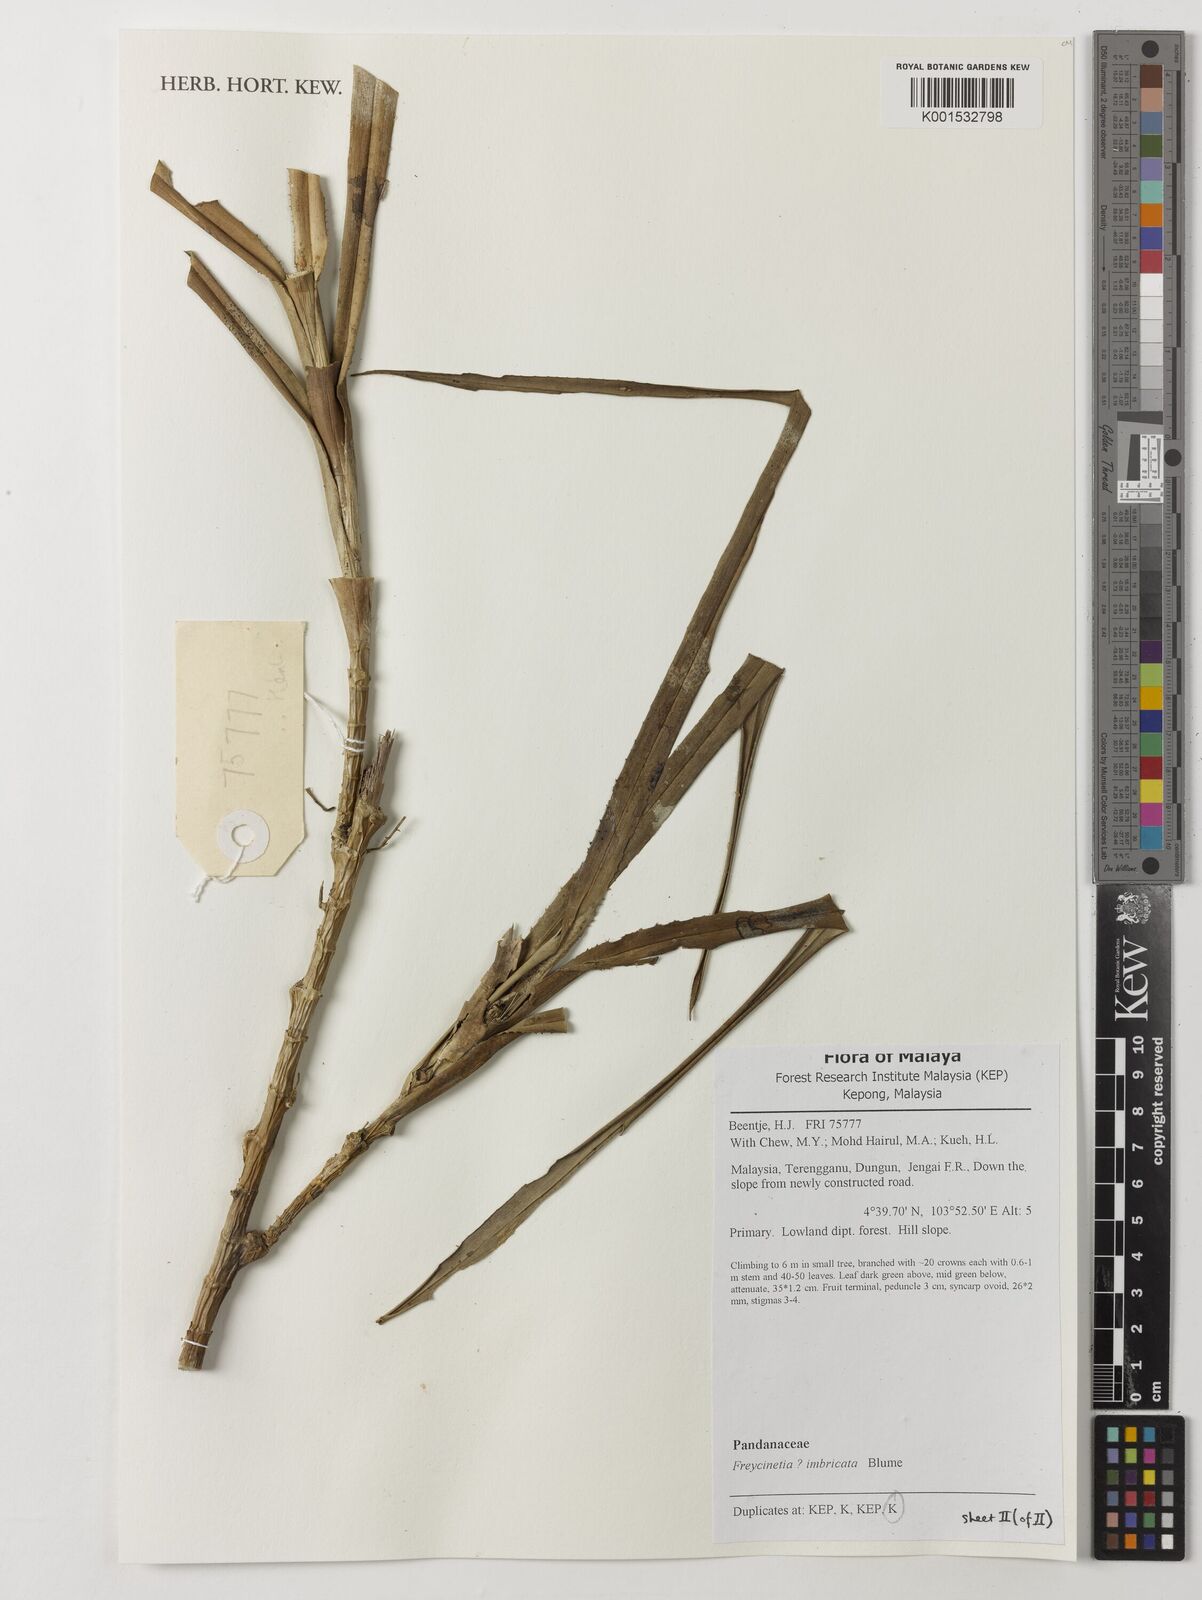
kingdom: Plantae
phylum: Tracheophyta
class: Liliopsida
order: Pandanales
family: Pandanaceae
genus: Freycinetia
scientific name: Freycinetia imbricata
